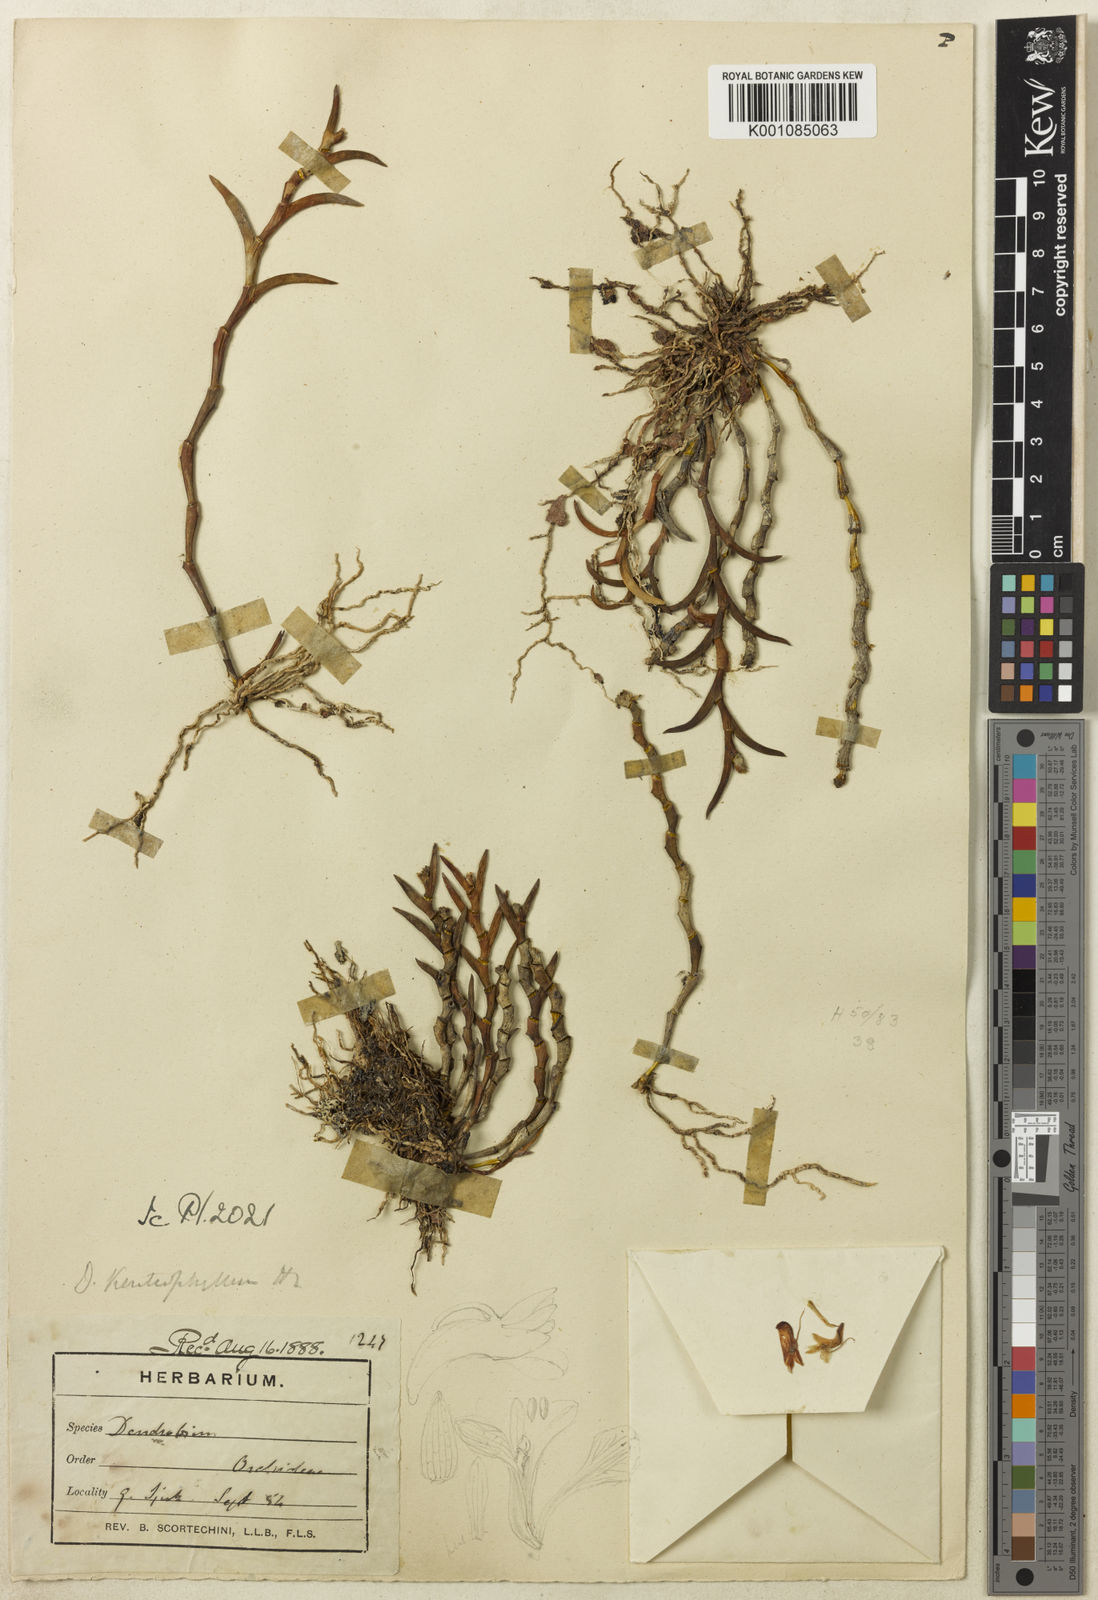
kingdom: Plantae
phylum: Tracheophyta
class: Liliopsida
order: Asparagales
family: Orchidaceae
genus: Dendrobium
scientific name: Dendrobium kentrophyllum
